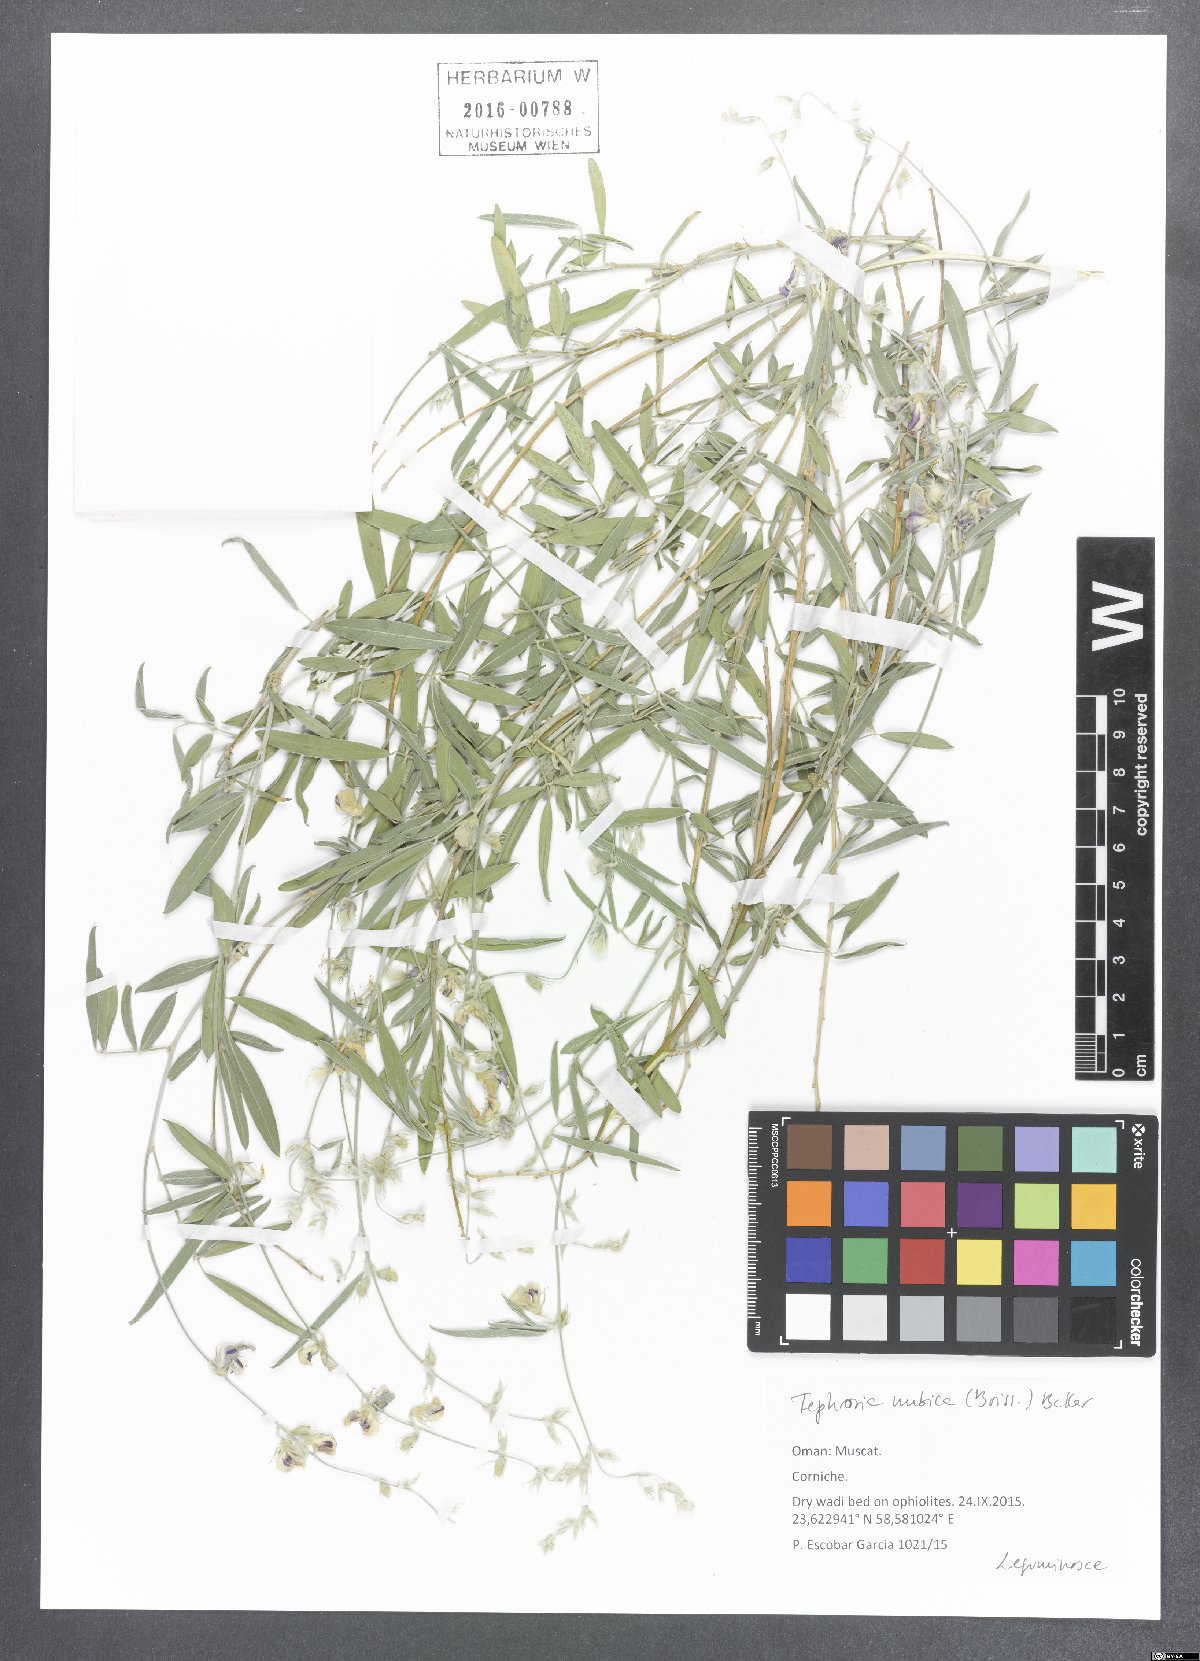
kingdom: Plantae
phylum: Tracheophyta
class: Magnoliopsida
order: Fabales
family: Fabaceae
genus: Tephrosia
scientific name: Tephrosia nubica
